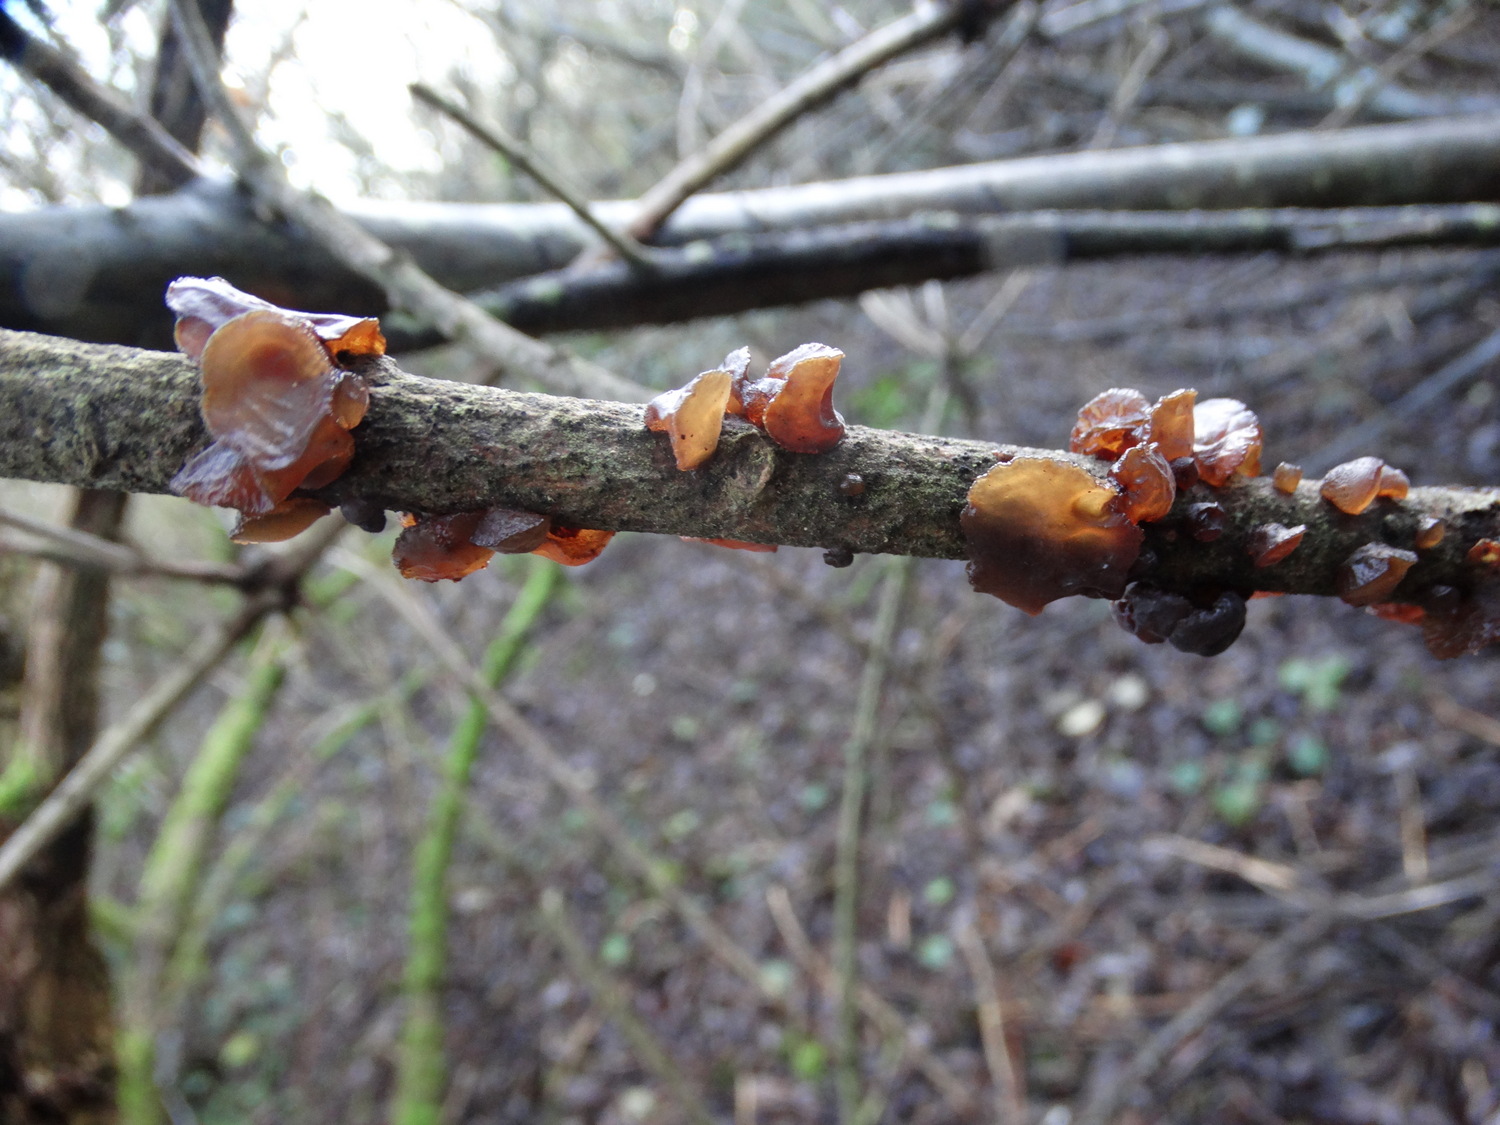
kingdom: Fungi
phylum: Basidiomycota
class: Agaricomycetes
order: Auriculariales
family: Auriculariaceae
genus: Exidia
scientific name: Exidia recisa
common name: pile-bævretop
